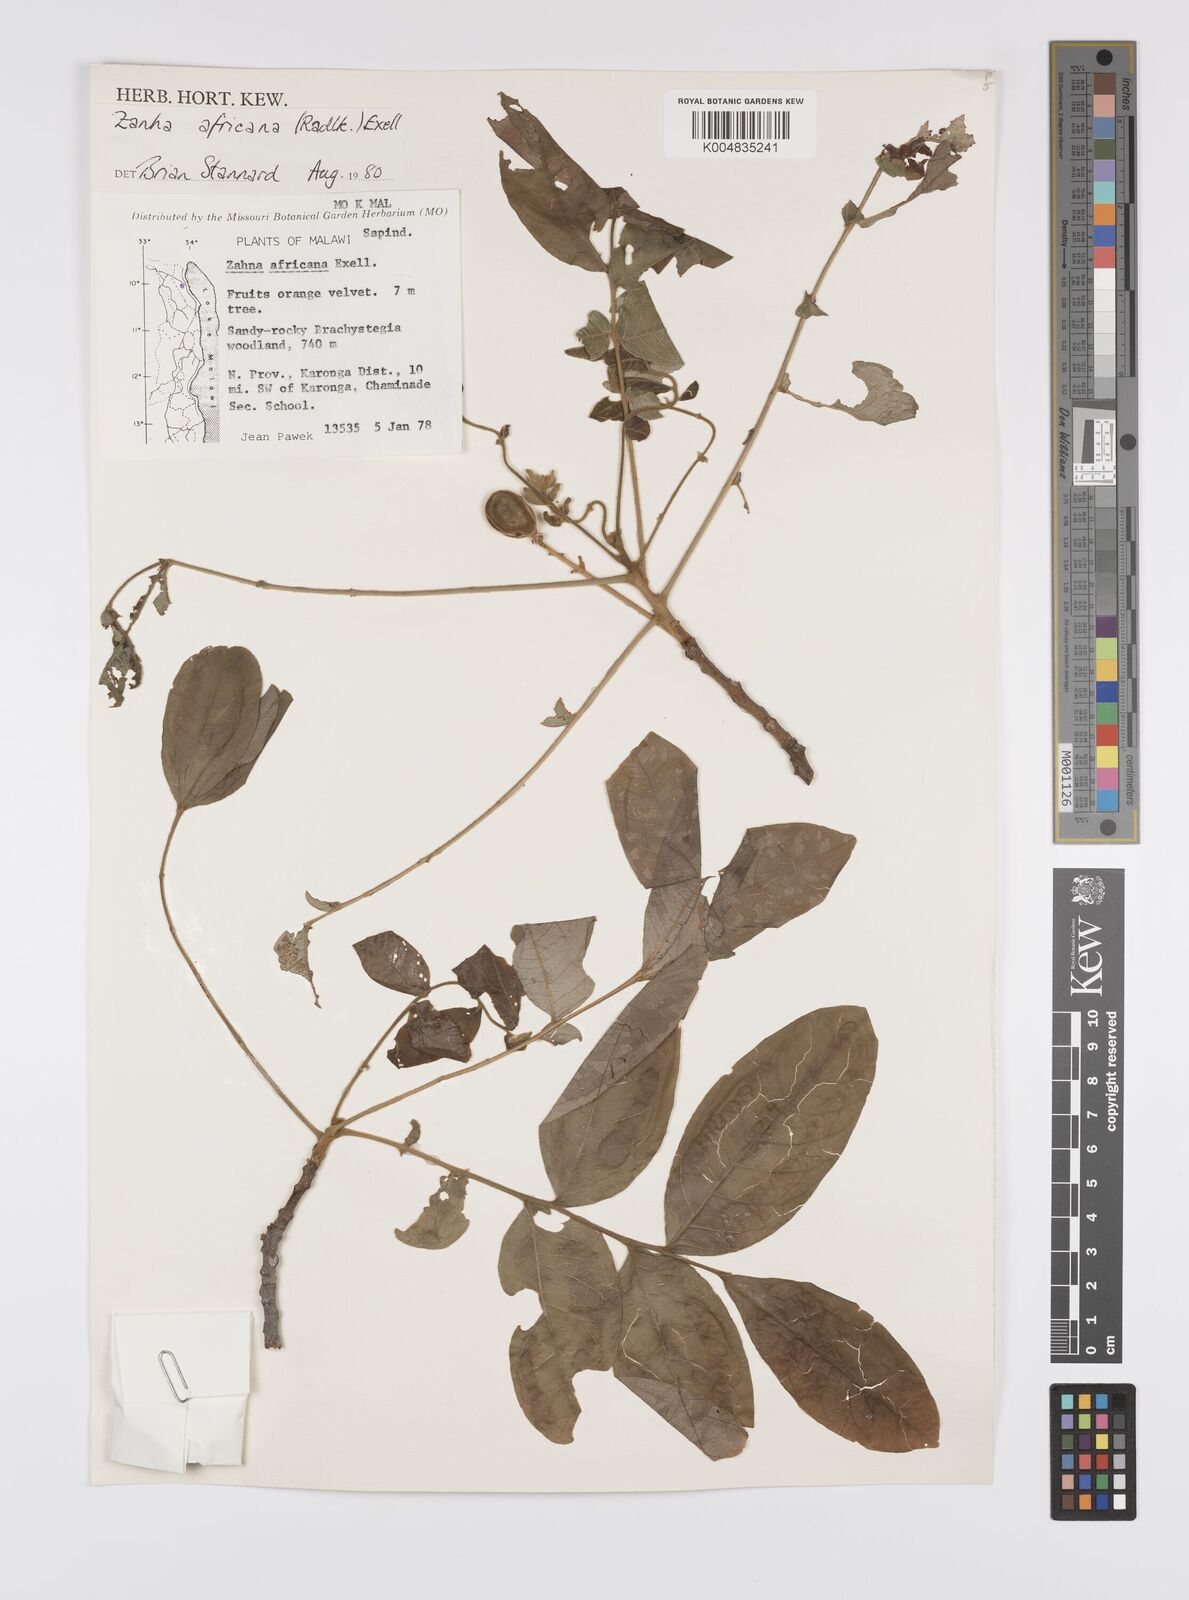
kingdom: Plantae
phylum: Tracheophyta
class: Magnoliopsida
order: Sapindales
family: Sapindaceae
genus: Zanha
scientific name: Zanha africana
